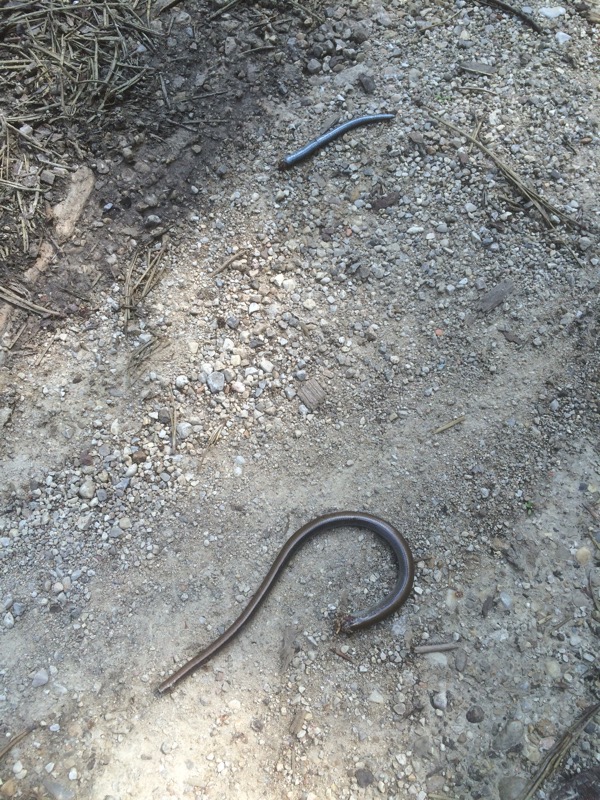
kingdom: Animalia
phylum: Chordata
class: Squamata
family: Anguidae
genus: Anguis
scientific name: Anguis fragilis
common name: Slow worm
